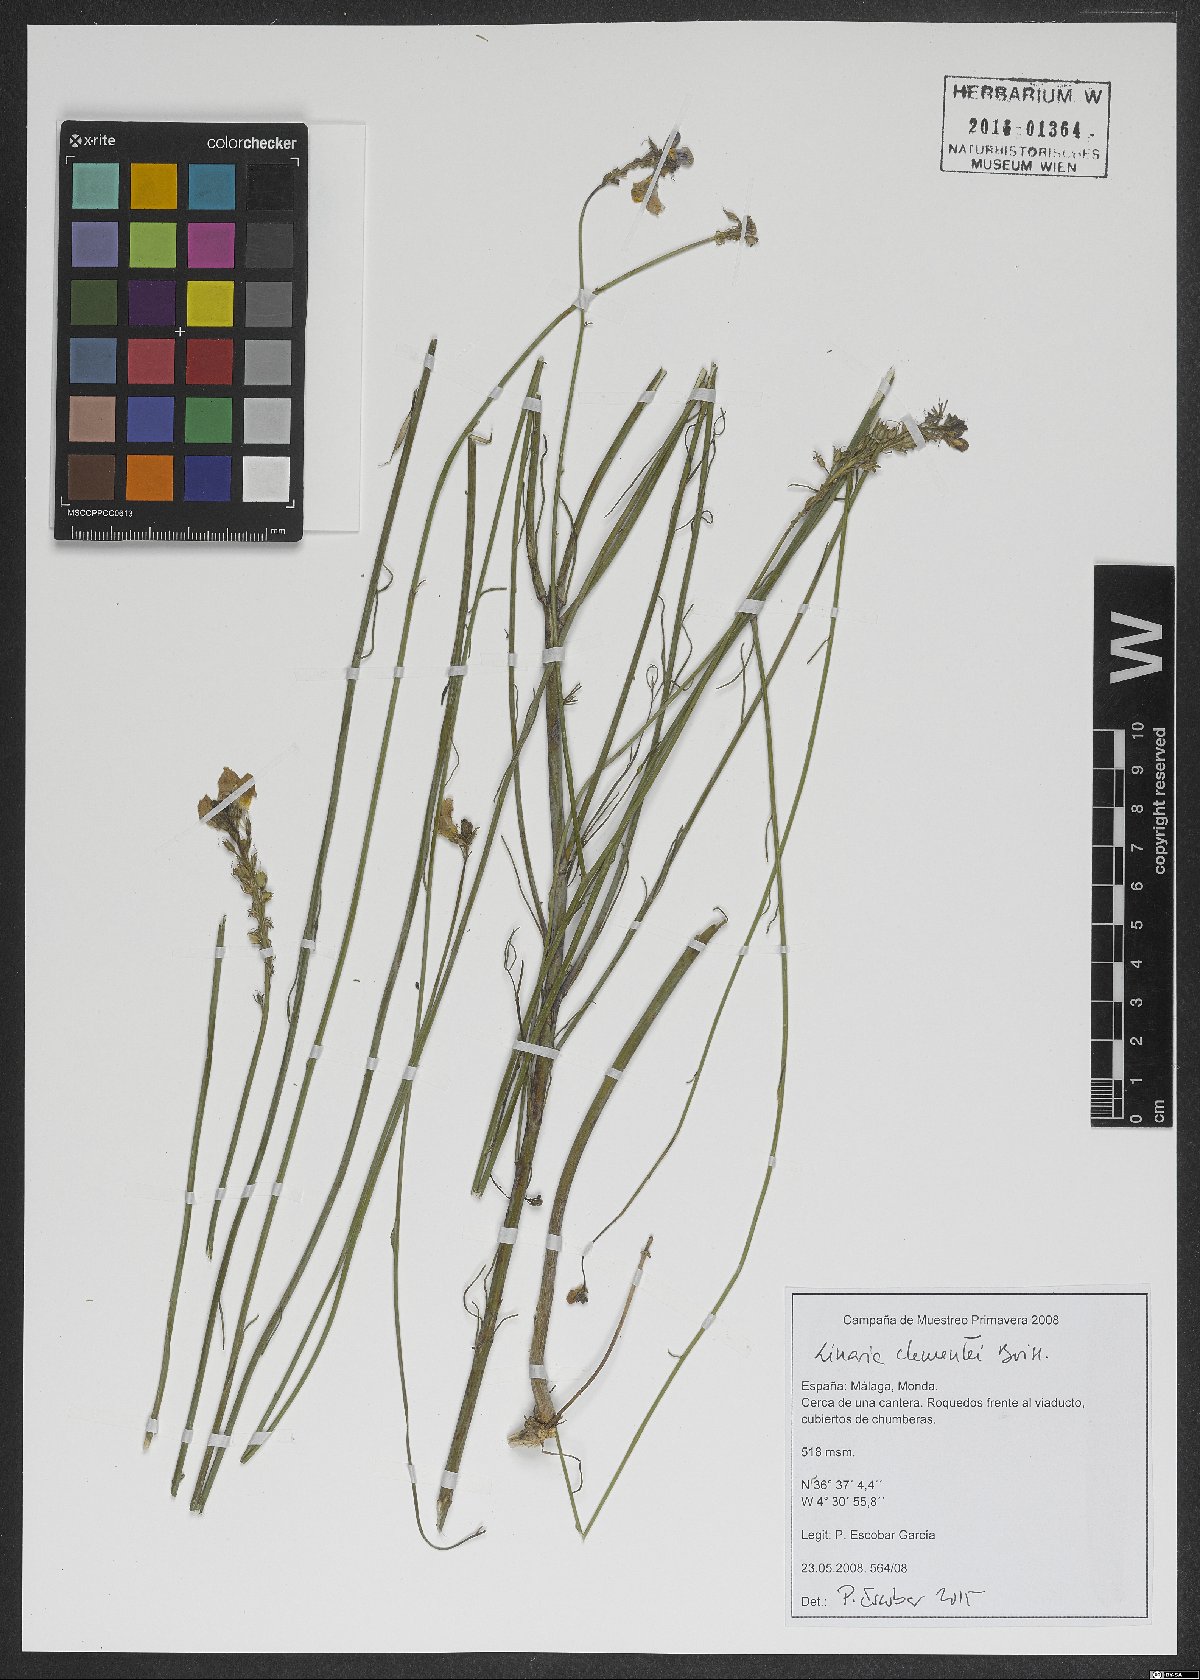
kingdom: Plantae
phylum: Tracheophyta
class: Magnoliopsida
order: Lamiales
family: Plantaginaceae
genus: Linaria
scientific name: Linaria clementei
